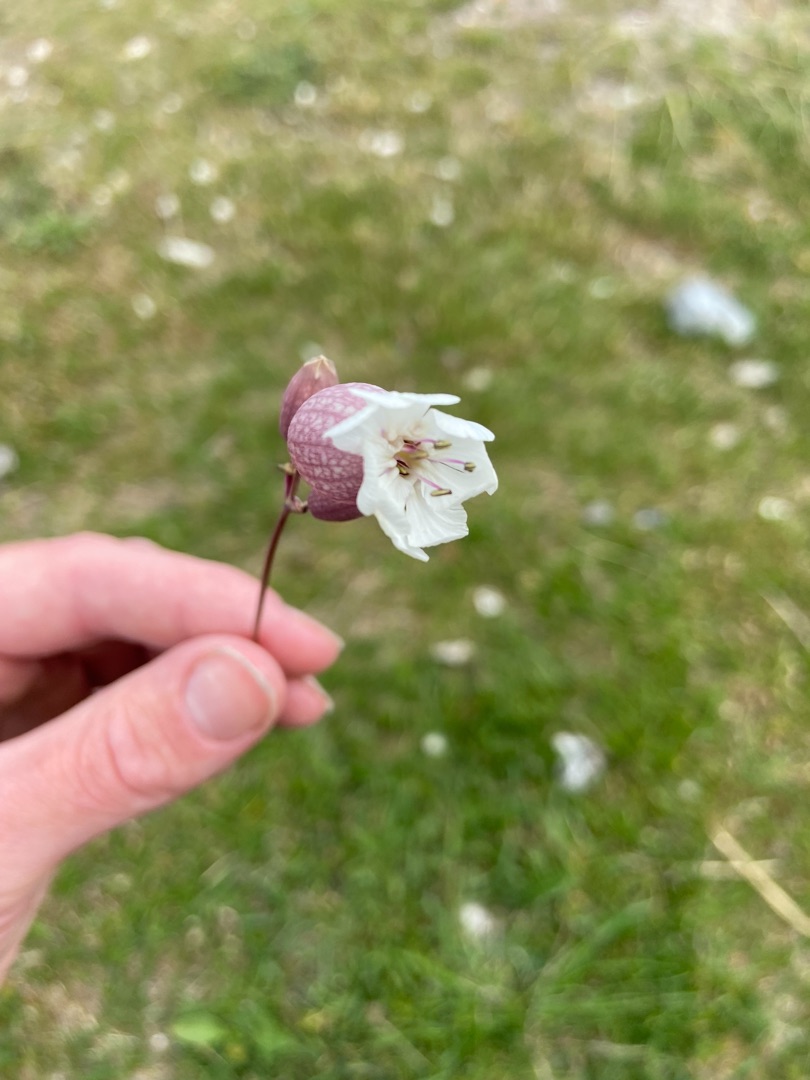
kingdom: Plantae
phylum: Tracheophyta
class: Magnoliopsida
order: Caryophyllales
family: Caryophyllaceae
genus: Silene
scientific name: Silene vulgaris
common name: Blæresmælde
